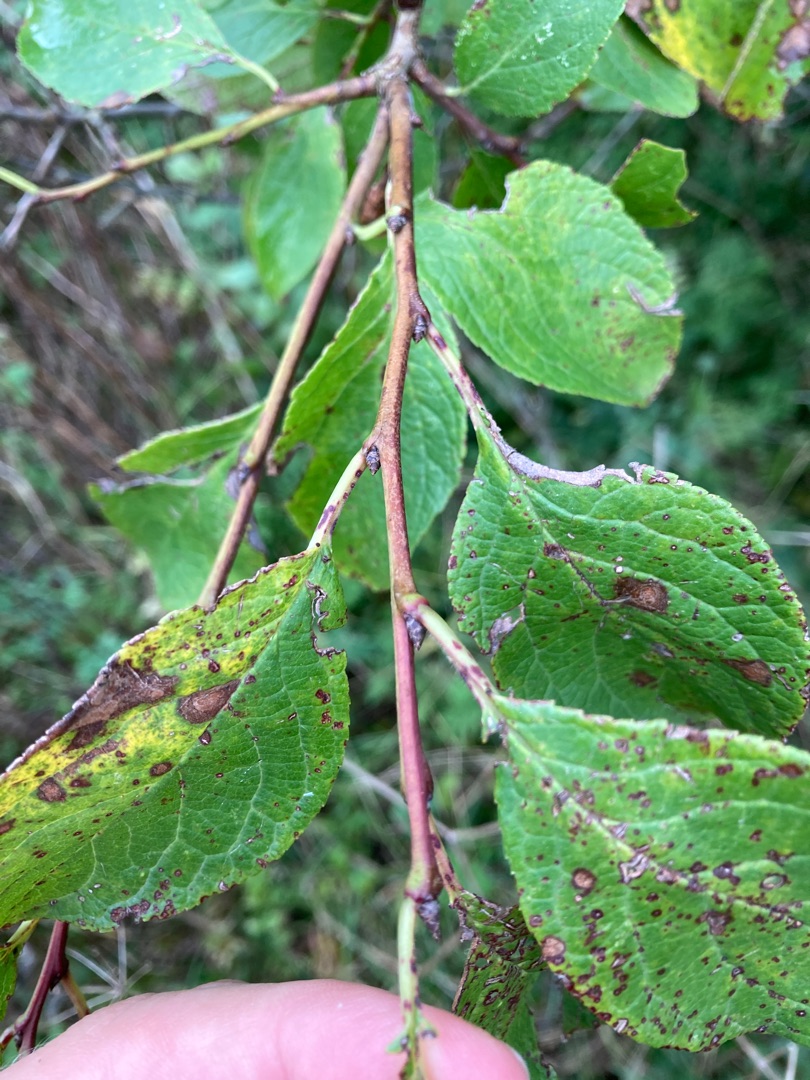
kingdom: Plantae
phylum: Tracheophyta
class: Magnoliopsida
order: Rosales
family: Rosaceae
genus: Prunus
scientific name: Prunus cerasifera
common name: Mirabel
